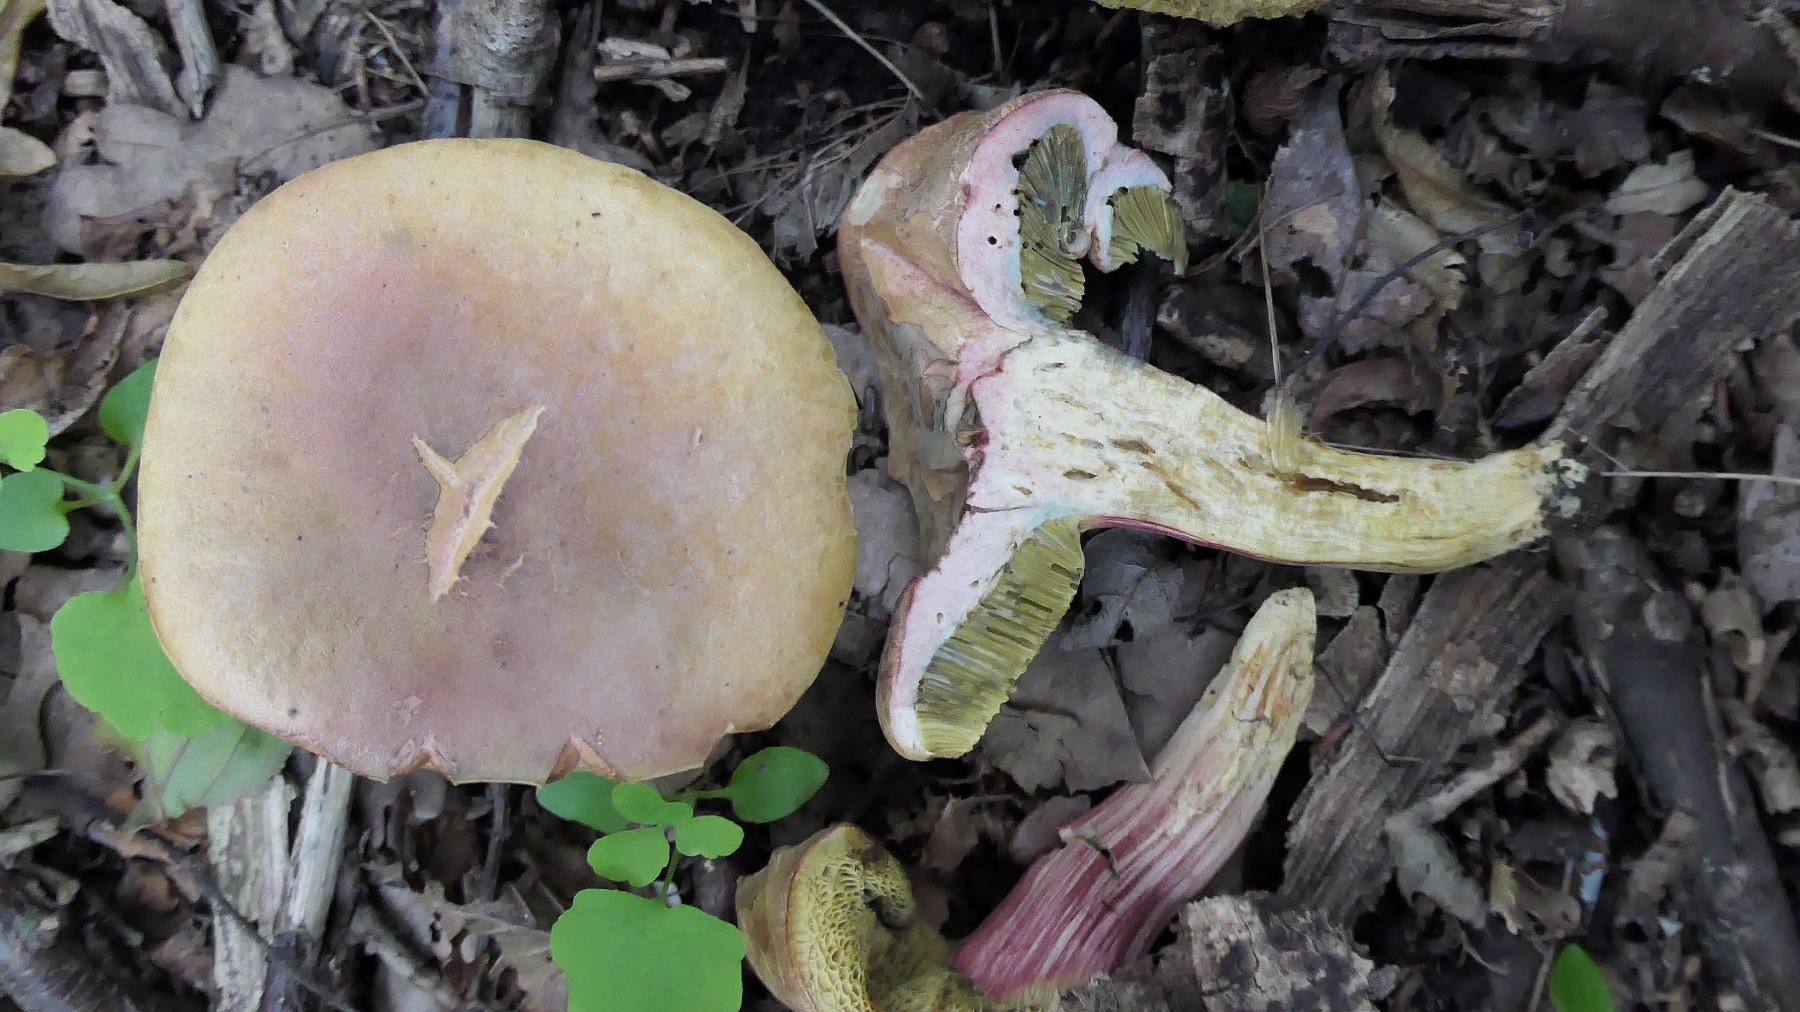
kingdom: Fungi
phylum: Basidiomycota
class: Agaricomycetes
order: Boletales
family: Boletaceae
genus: Hortiboletus
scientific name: Hortiboletus bubalinus
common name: aurora-rørhat
